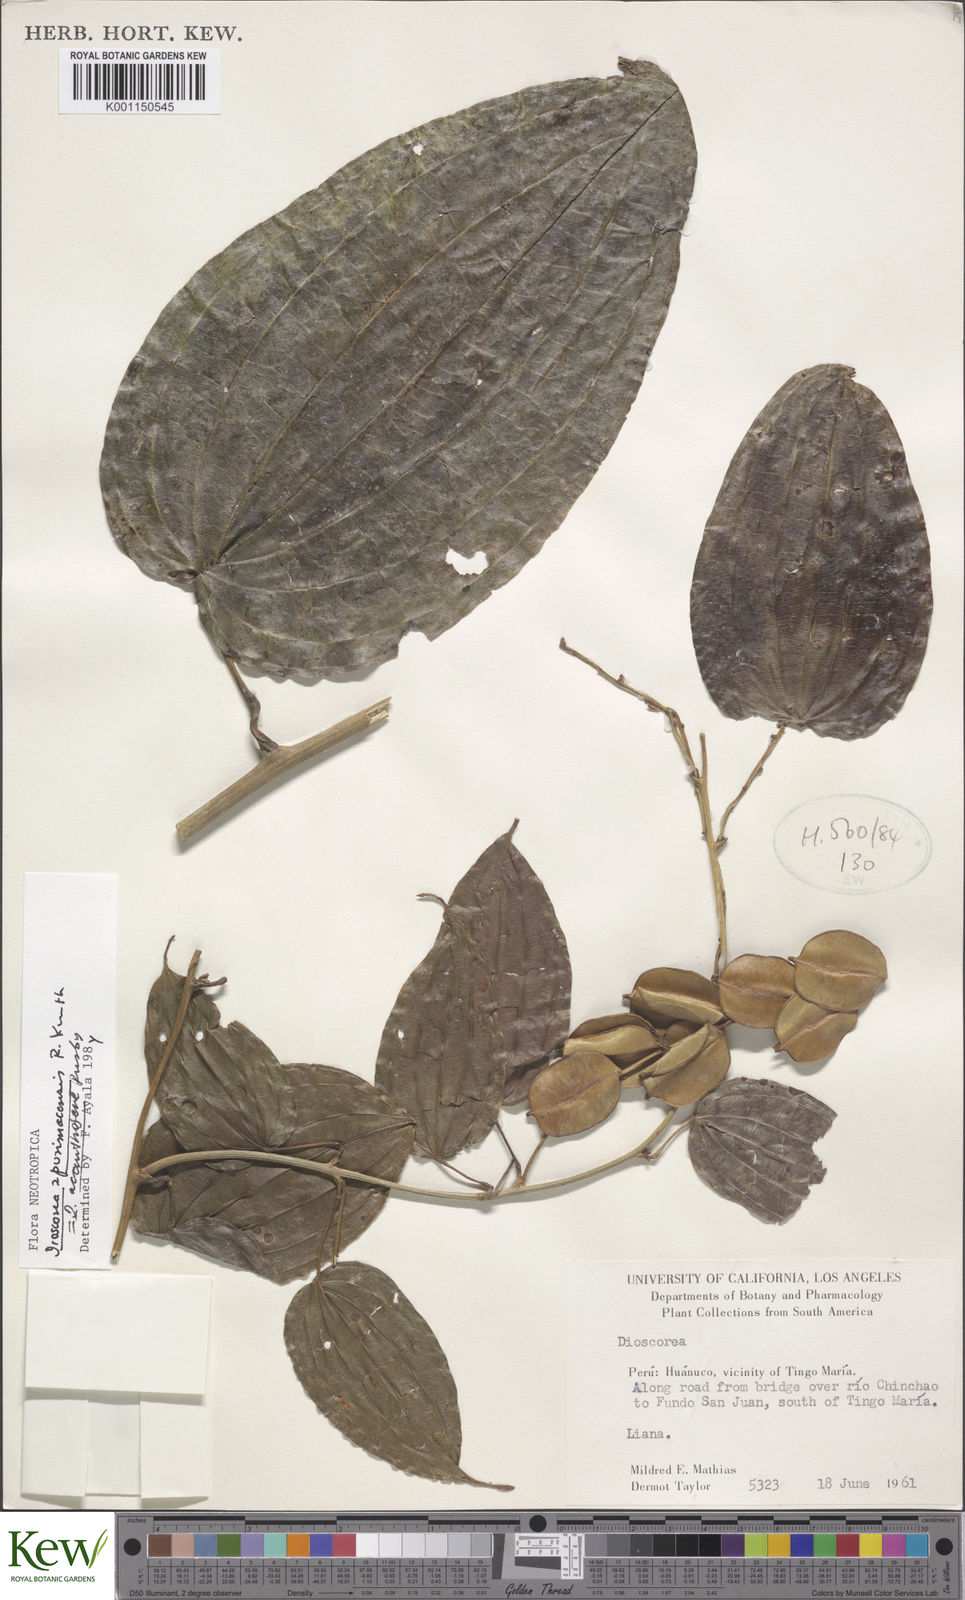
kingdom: Plantae
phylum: Tracheophyta
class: Liliopsida
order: Dioscoreales
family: Dioscoreaceae
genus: Dioscorea
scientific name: Dioscorea acanthogene
